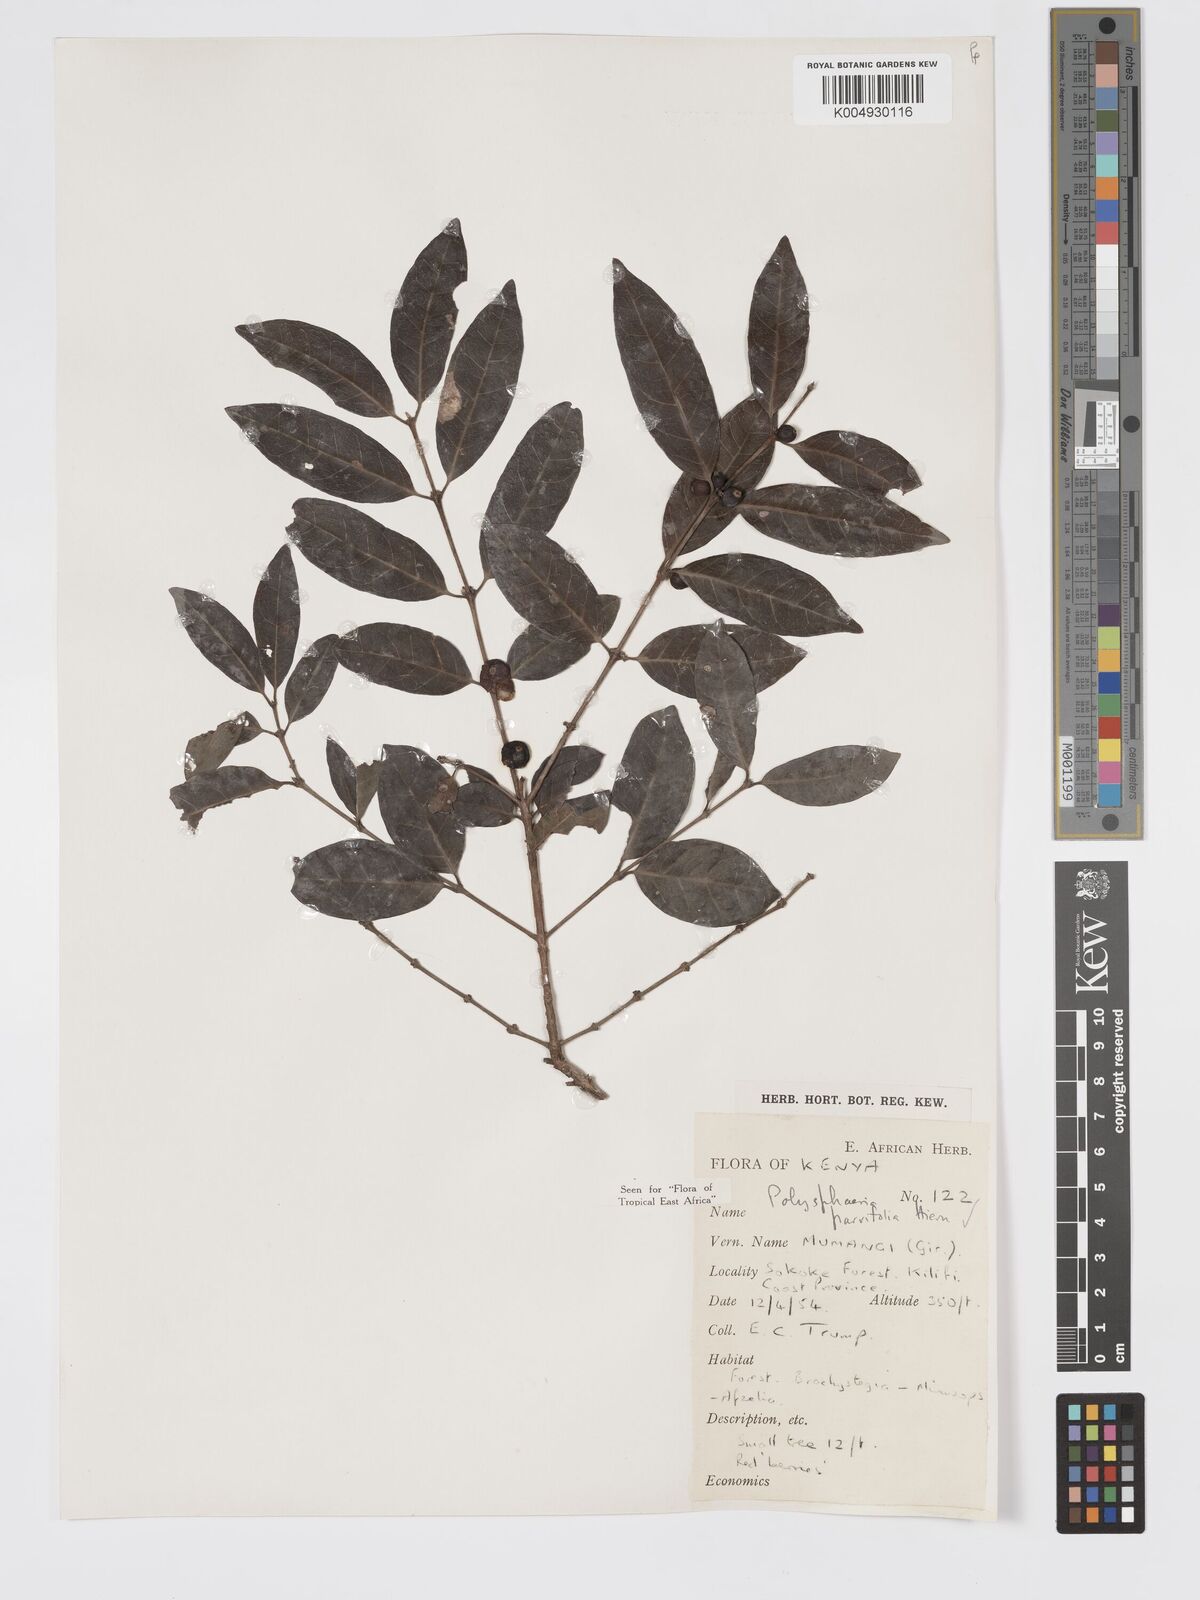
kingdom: Plantae
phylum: Tracheophyta
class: Magnoliopsida
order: Gentianales
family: Rubiaceae
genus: Polysphaeria
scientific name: Polysphaeria parvifolia
